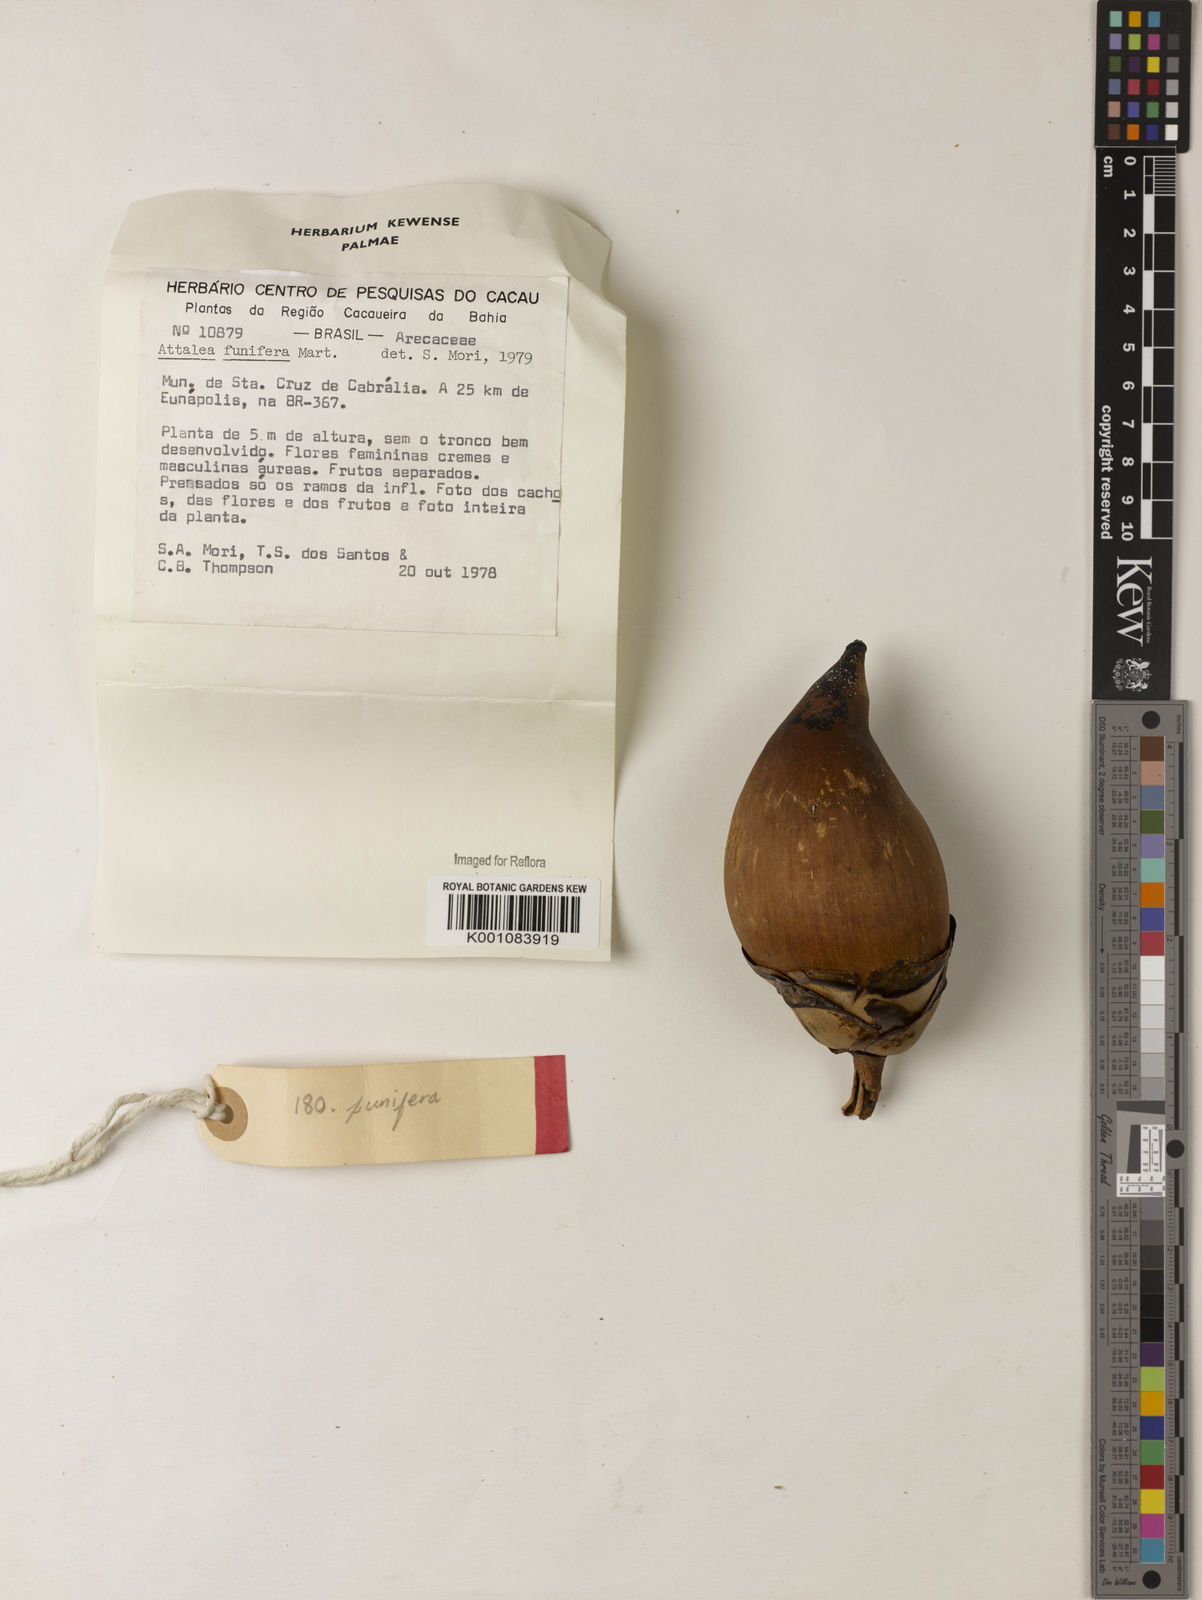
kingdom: Plantae
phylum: Tracheophyta
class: Liliopsida
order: Arecales
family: Arecaceae
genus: Attalea
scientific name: Attalea funifera
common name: Piassava palm
